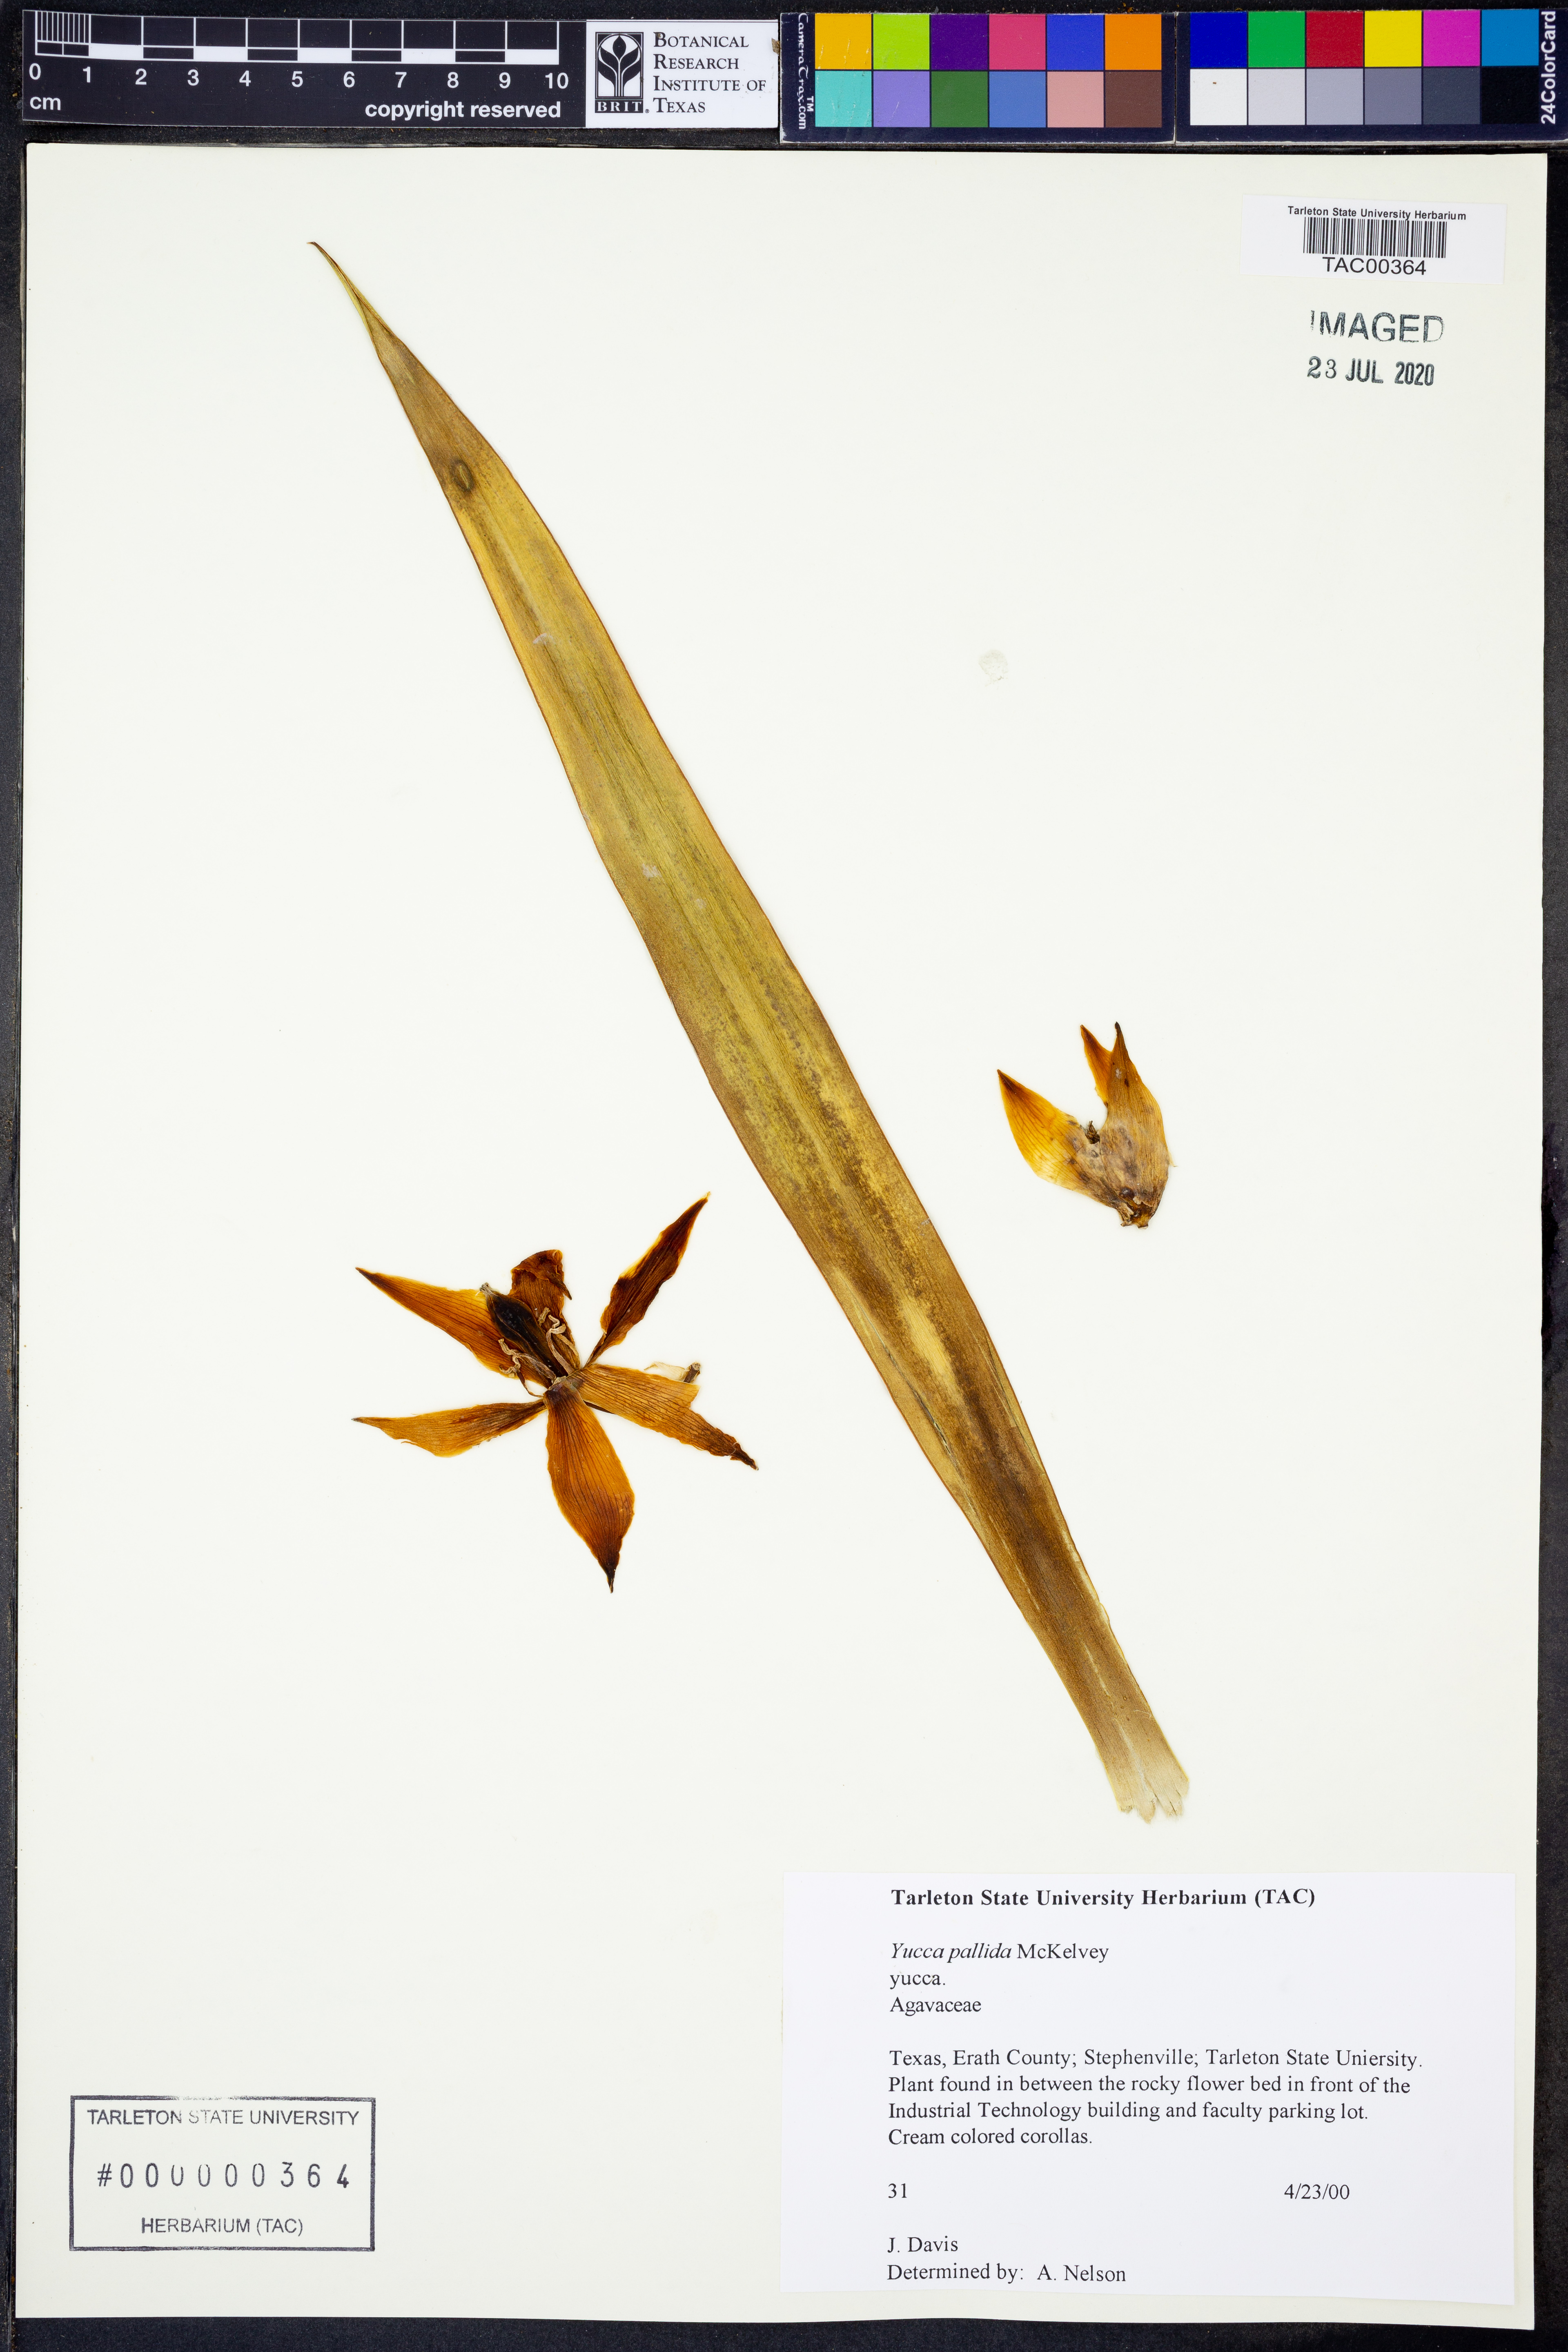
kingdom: Plantae
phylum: Tracheophyta
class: Liliopsida
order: Asparagales
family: Asparagaceae
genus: Yucca
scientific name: Yucca pallida
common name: Pale leaf yucca
